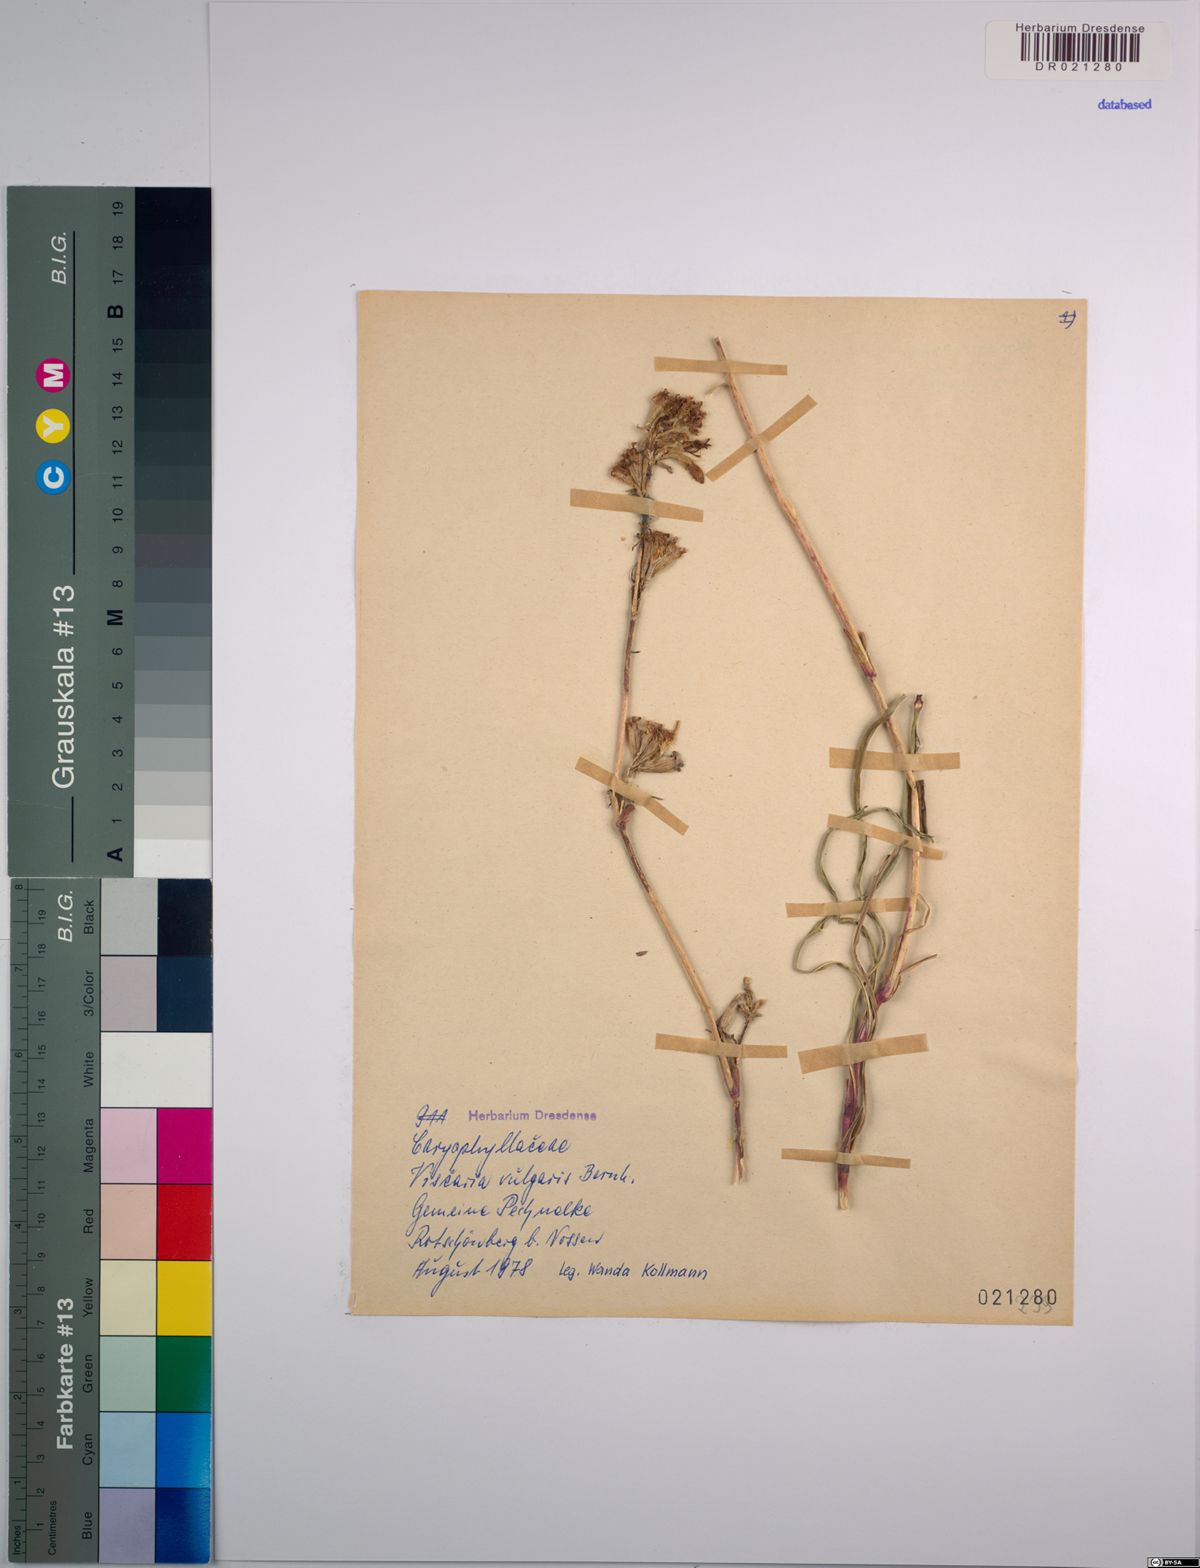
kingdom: Plantae
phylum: Tracheophyta
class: Magnoliopsida
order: Caryophyllales
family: Caryophyllaceae
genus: Viscaria
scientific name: Viscaria vulgaris
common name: Clammy campion
